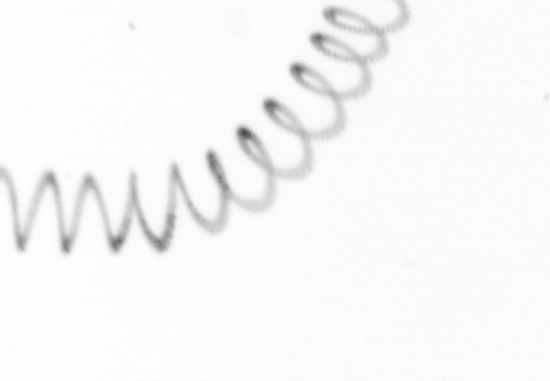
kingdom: Chromista
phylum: Ochrophyta
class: Bacillariophyceae
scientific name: Bacillariophyceae
